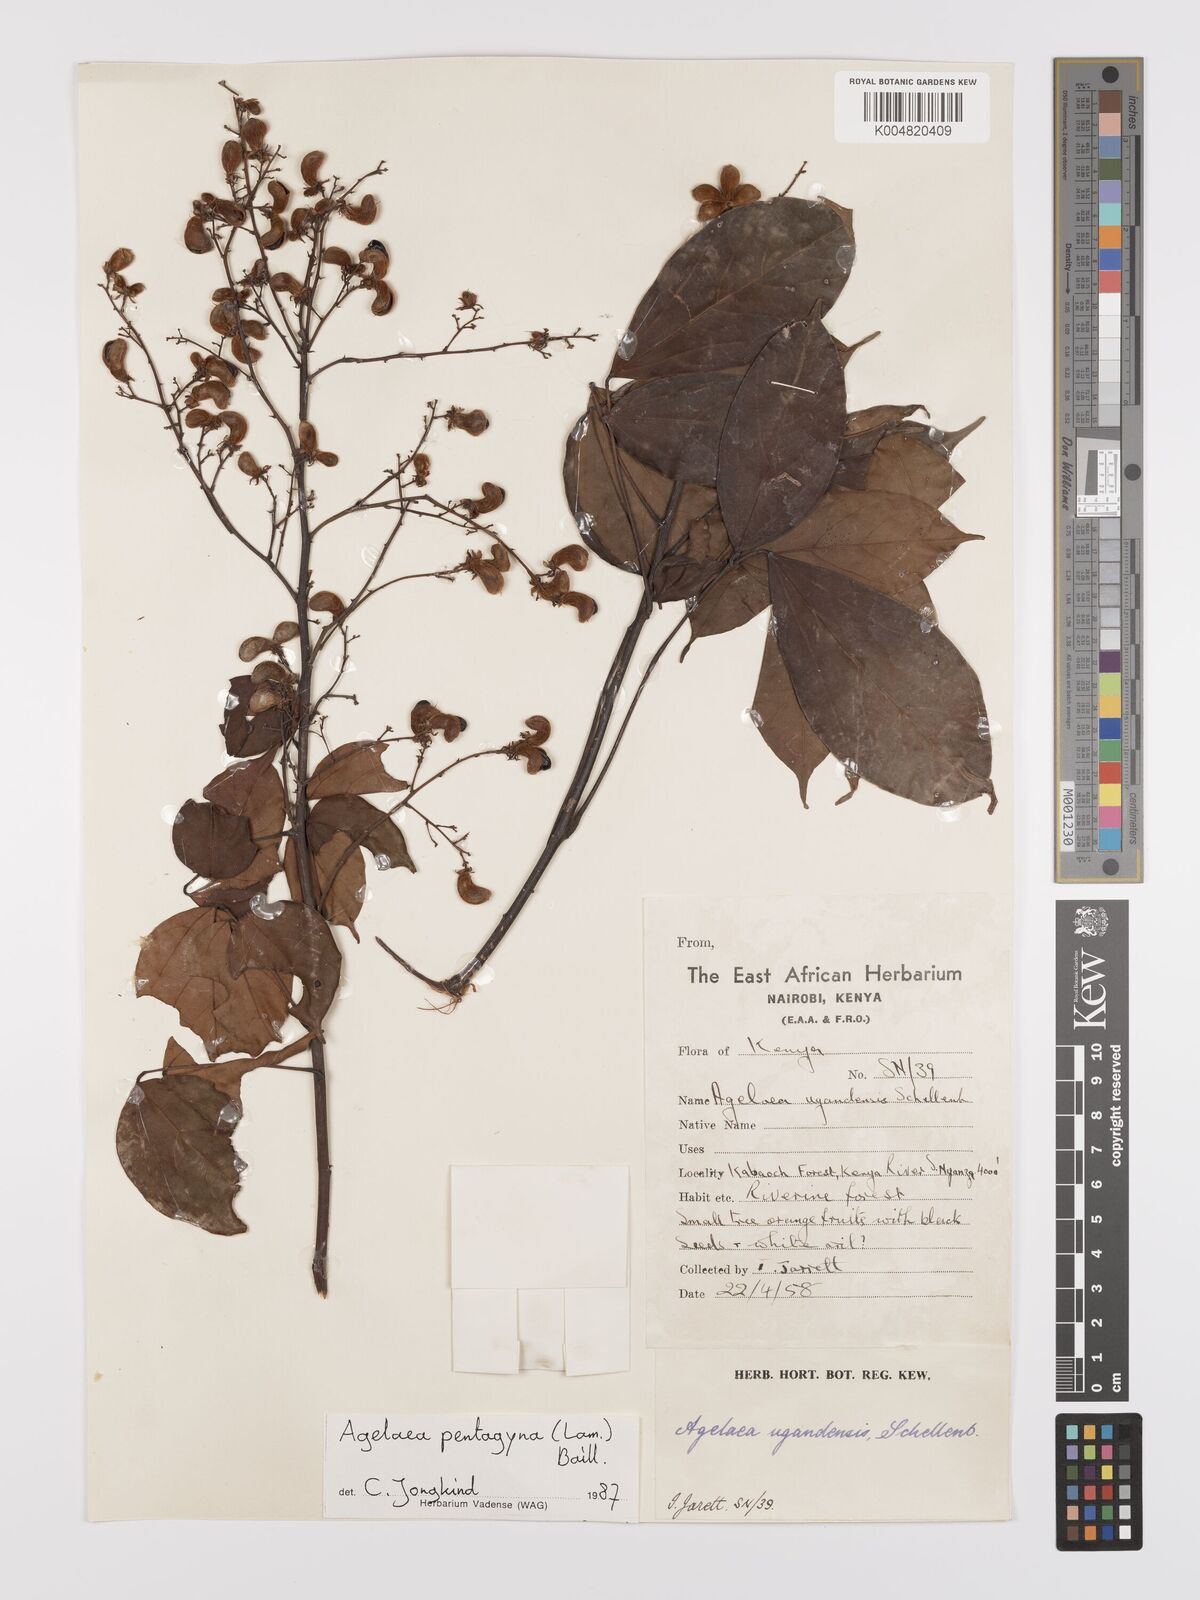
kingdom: Plantae
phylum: Tracheophyta
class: Magnoliopsida
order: Oxalidales
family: Connaraceae
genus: Agelaea
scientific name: Agelaea pentagyna
